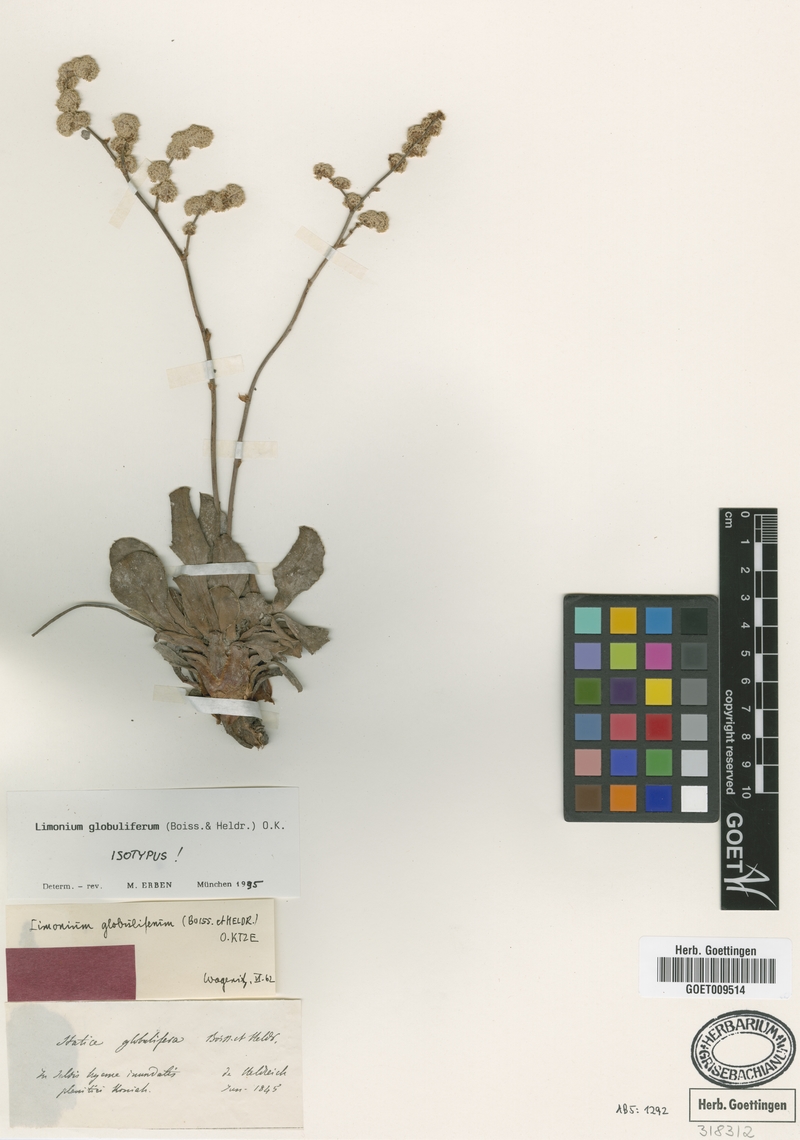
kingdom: Plantae
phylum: Tracheophyta
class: Magnoliopsida
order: Caryophyllales
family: Plumbaginaceae
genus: Limonium
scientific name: Limonium globuliferum
